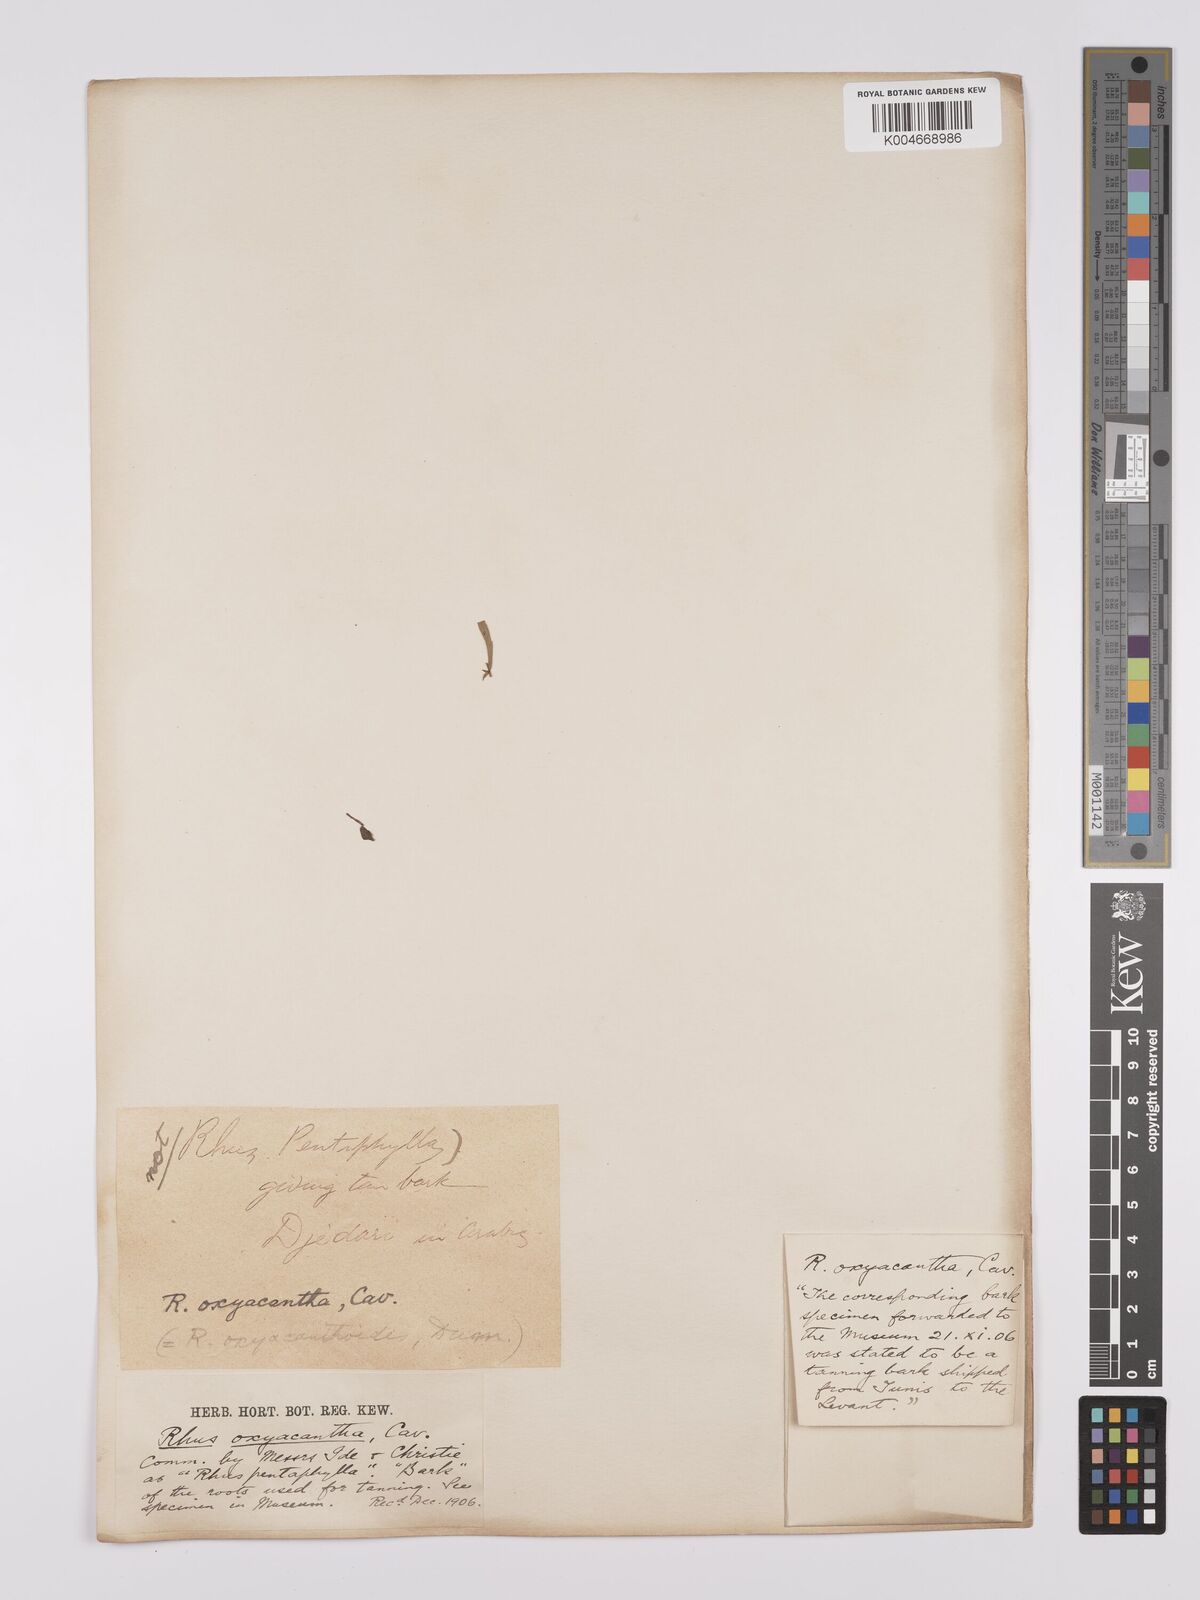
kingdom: Plantae
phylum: Tracheophyta
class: Magnoliopsida
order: Sapindales
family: Anacardiaceae
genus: Rhus
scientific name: Rhus
